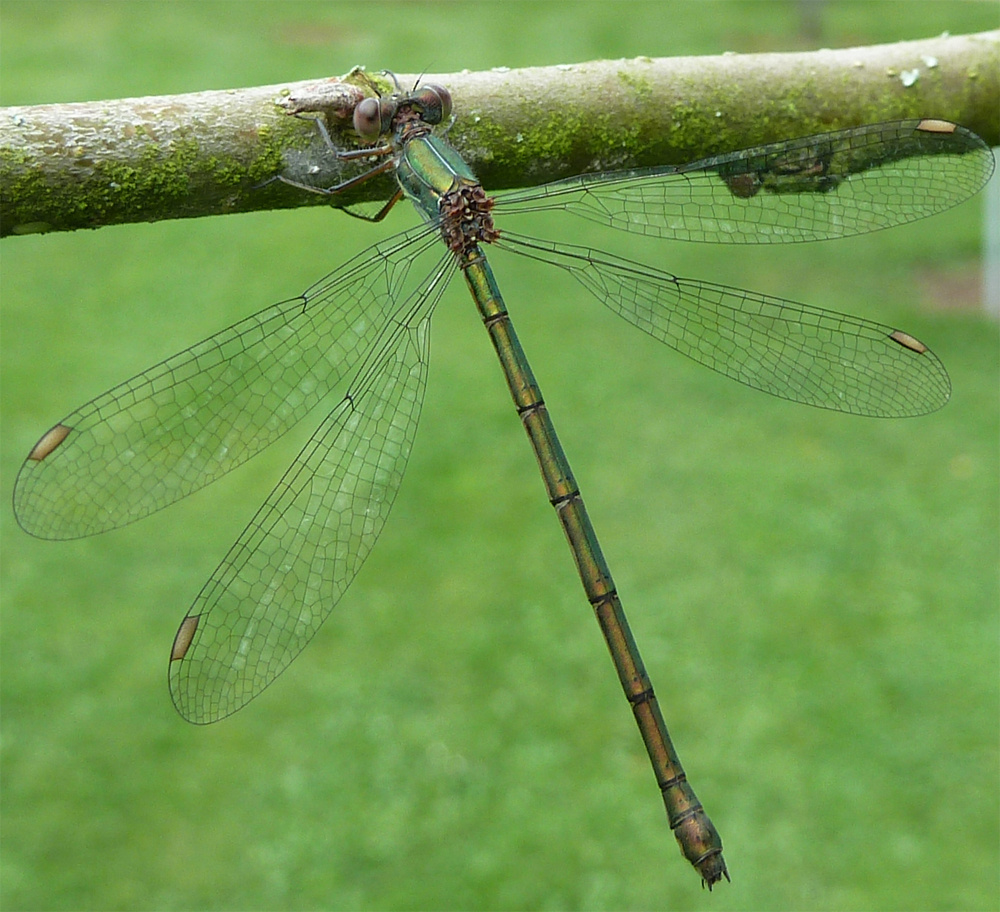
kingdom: Animalia
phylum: Arthropoda
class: Insecta
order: Odonata
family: Lestidae
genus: Chalcolestes
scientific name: Chalcolestes viridis
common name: Green emerald damselfly
